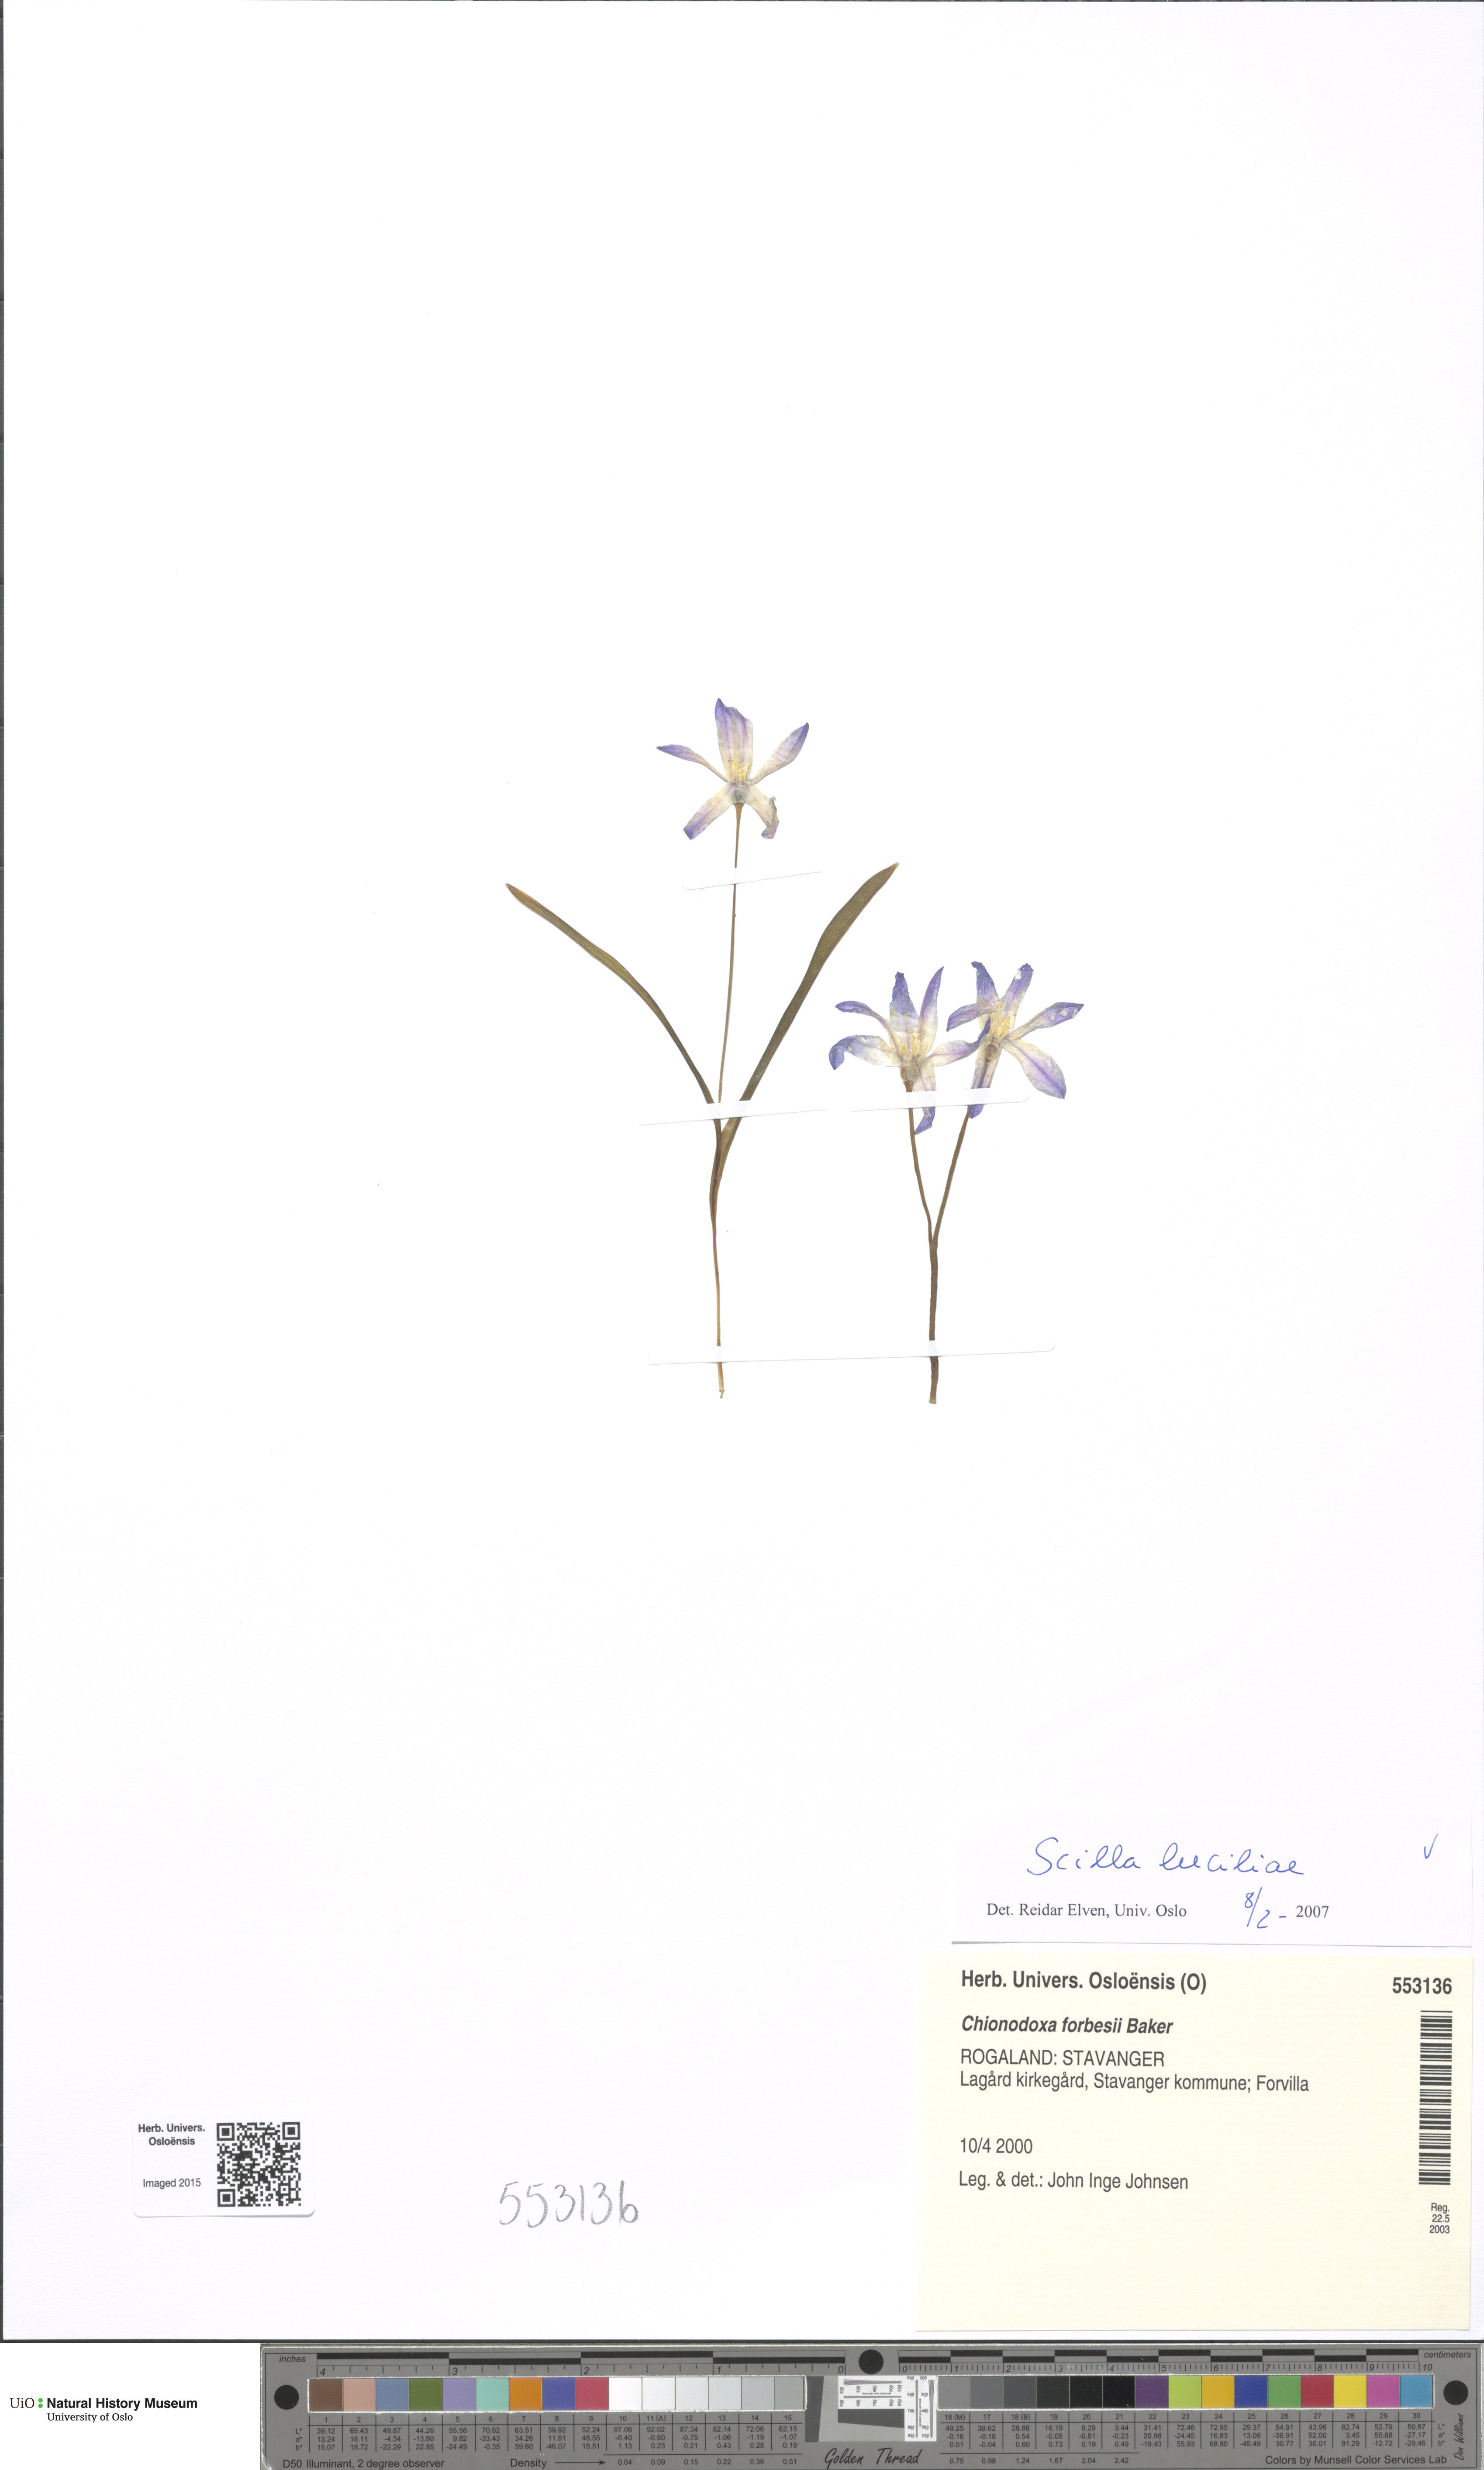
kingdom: Plantae
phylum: Tracheophyta
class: Liliopsida
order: Asparagales
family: Asparagaceae
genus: Scilla
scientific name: Scilla luciliae
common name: Boissier's glory-of-the-snow
